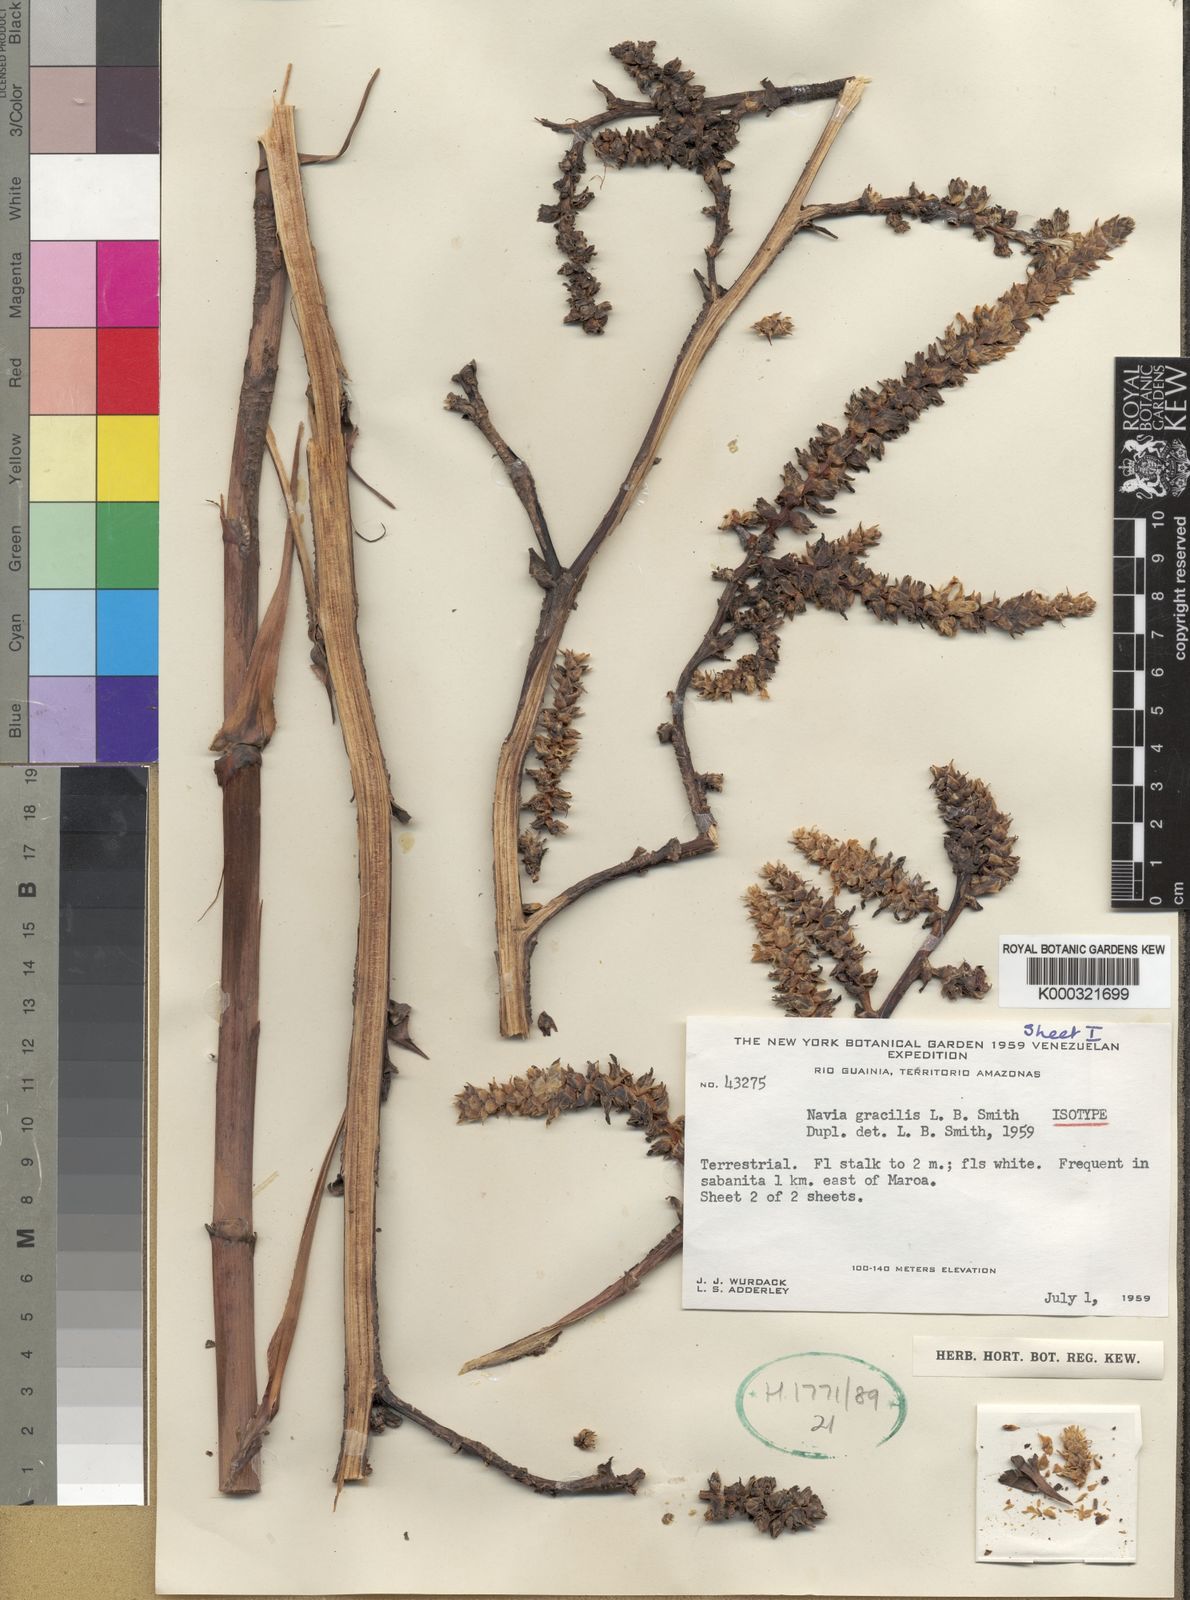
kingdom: Plantae
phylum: Tracheophyta
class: Liliopsida
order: Poales
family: Bromeliaceae
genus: Navia
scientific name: Navia reflexa
